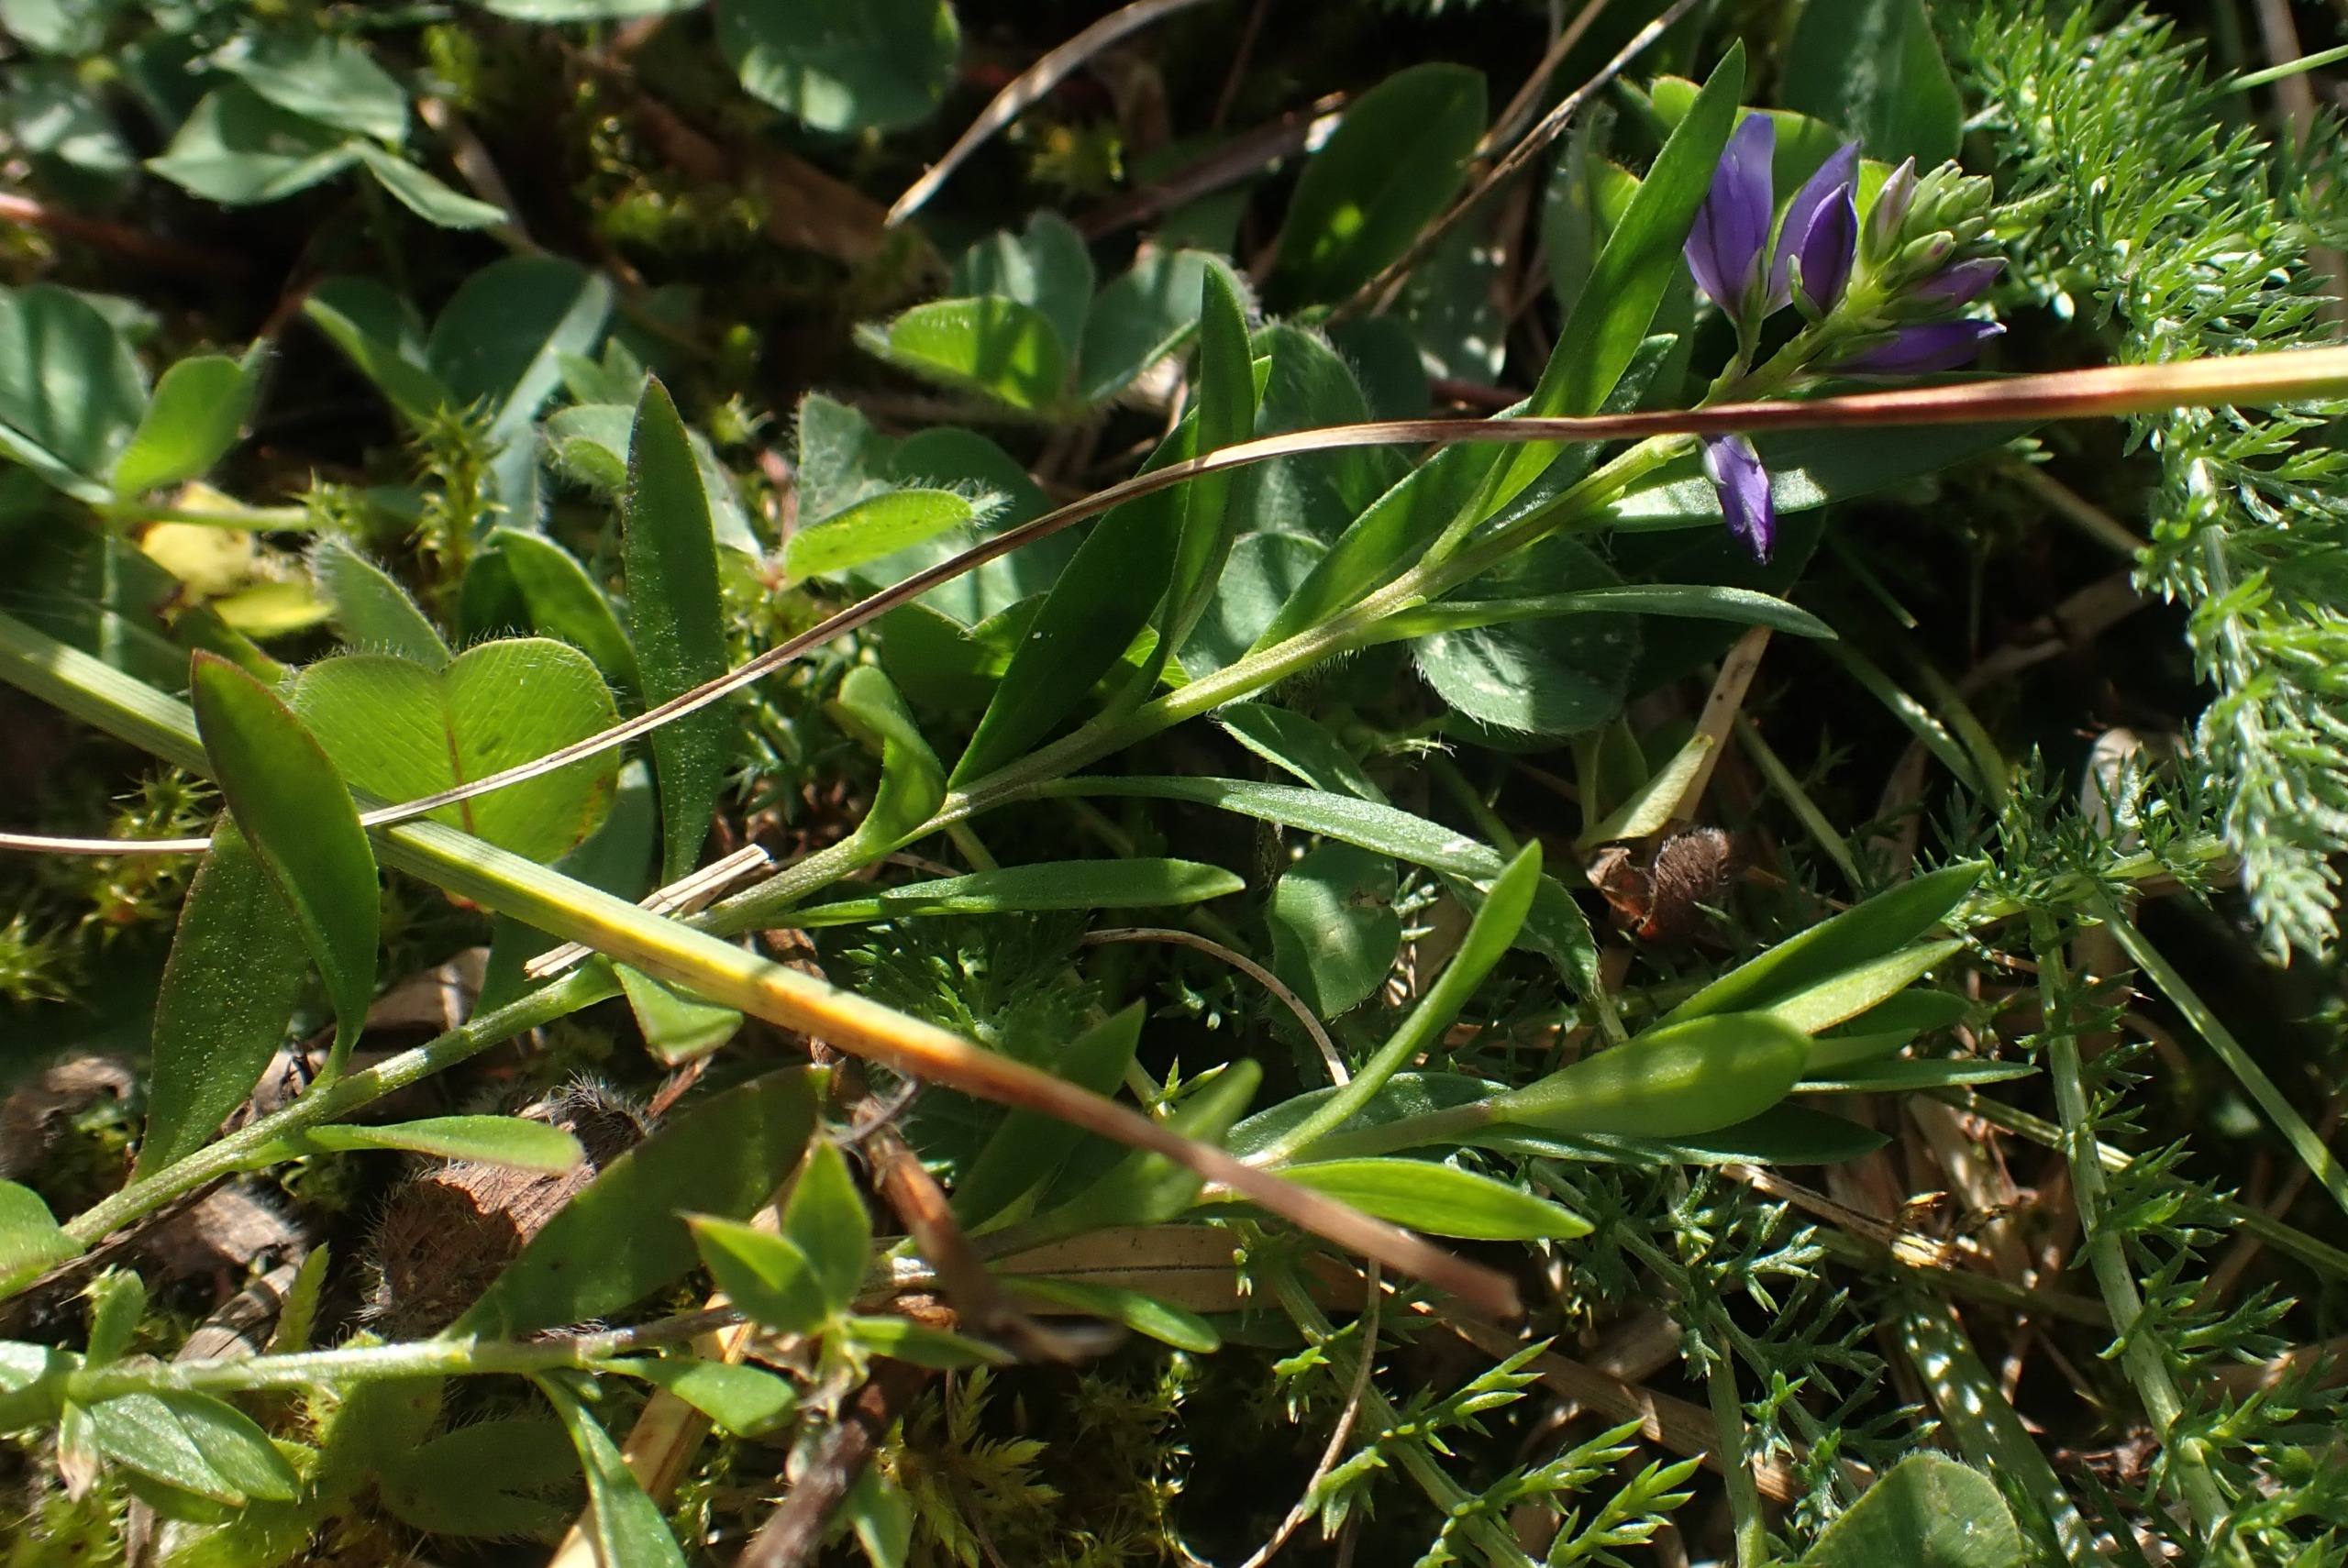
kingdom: Plantae
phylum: Tracheophyta
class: Magnoliopsida
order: Fabales
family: Polygalaceae
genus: Polygala
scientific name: Polygala vulgaris
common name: Almindelig mælkeurt
